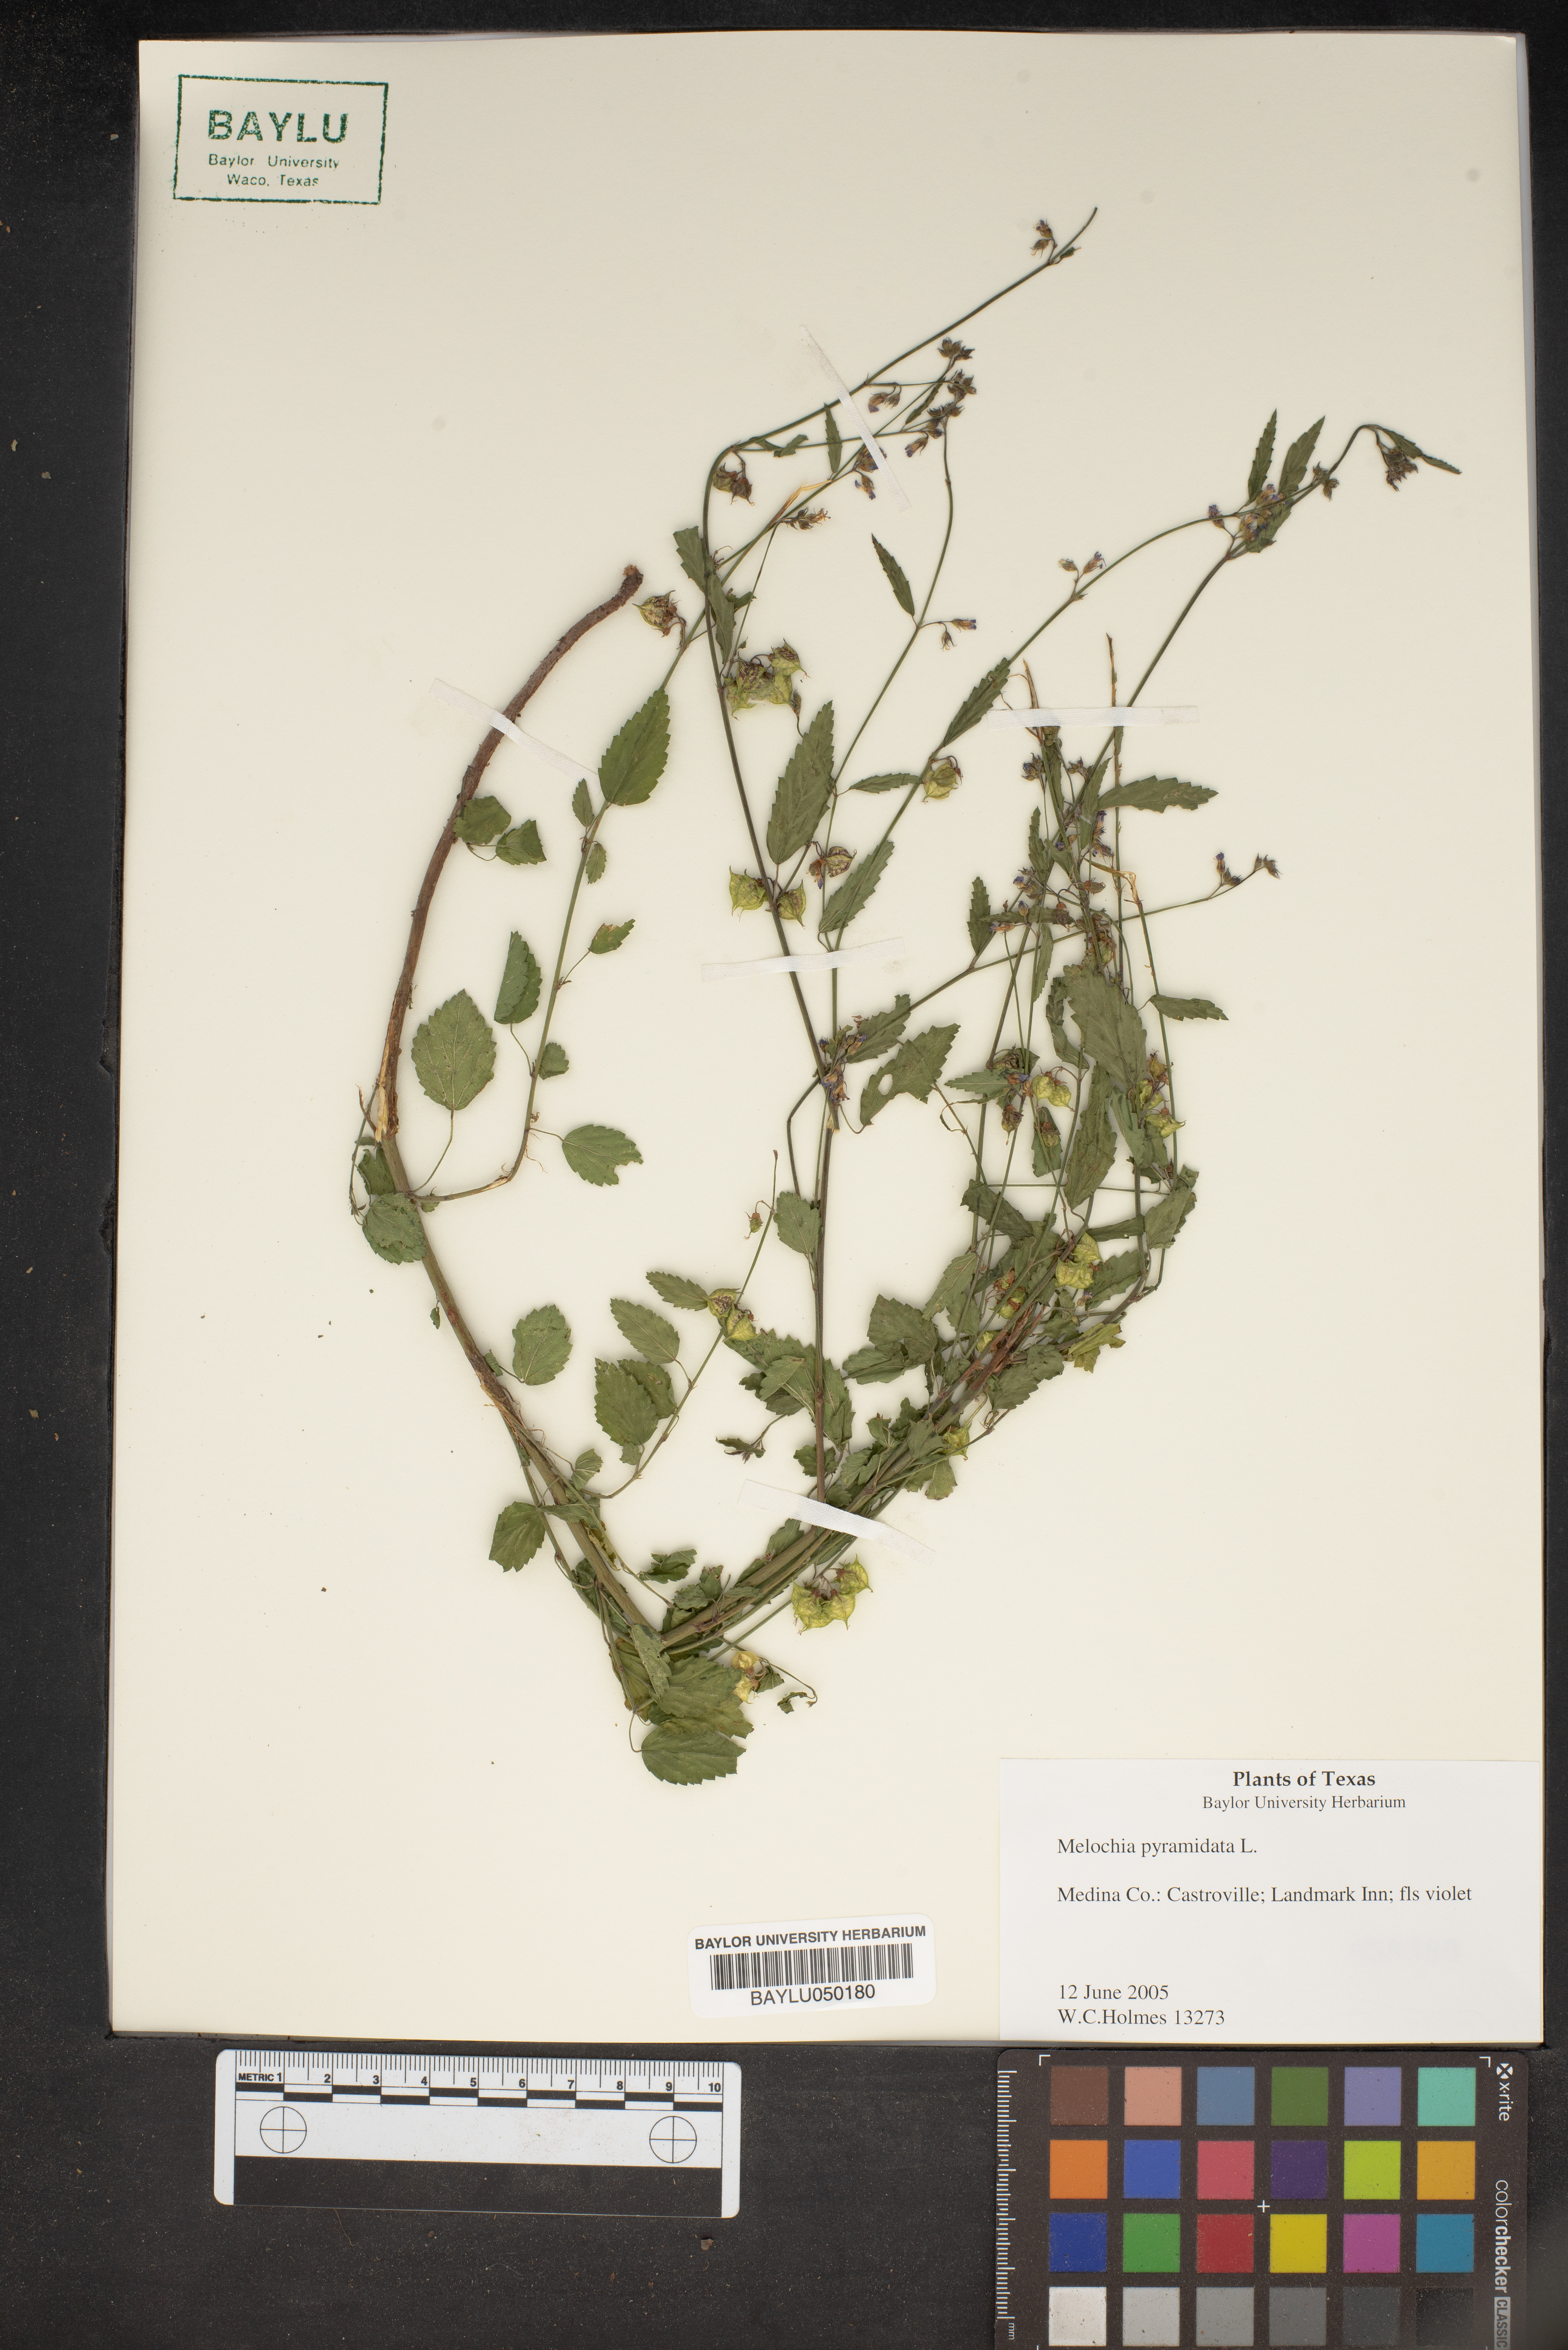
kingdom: Plantae
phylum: Tracheophyta
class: Magnoliopsida
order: Malvales
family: Malvaceae
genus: Melochia
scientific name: Melochia pyramidata
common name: Pyramidflower
